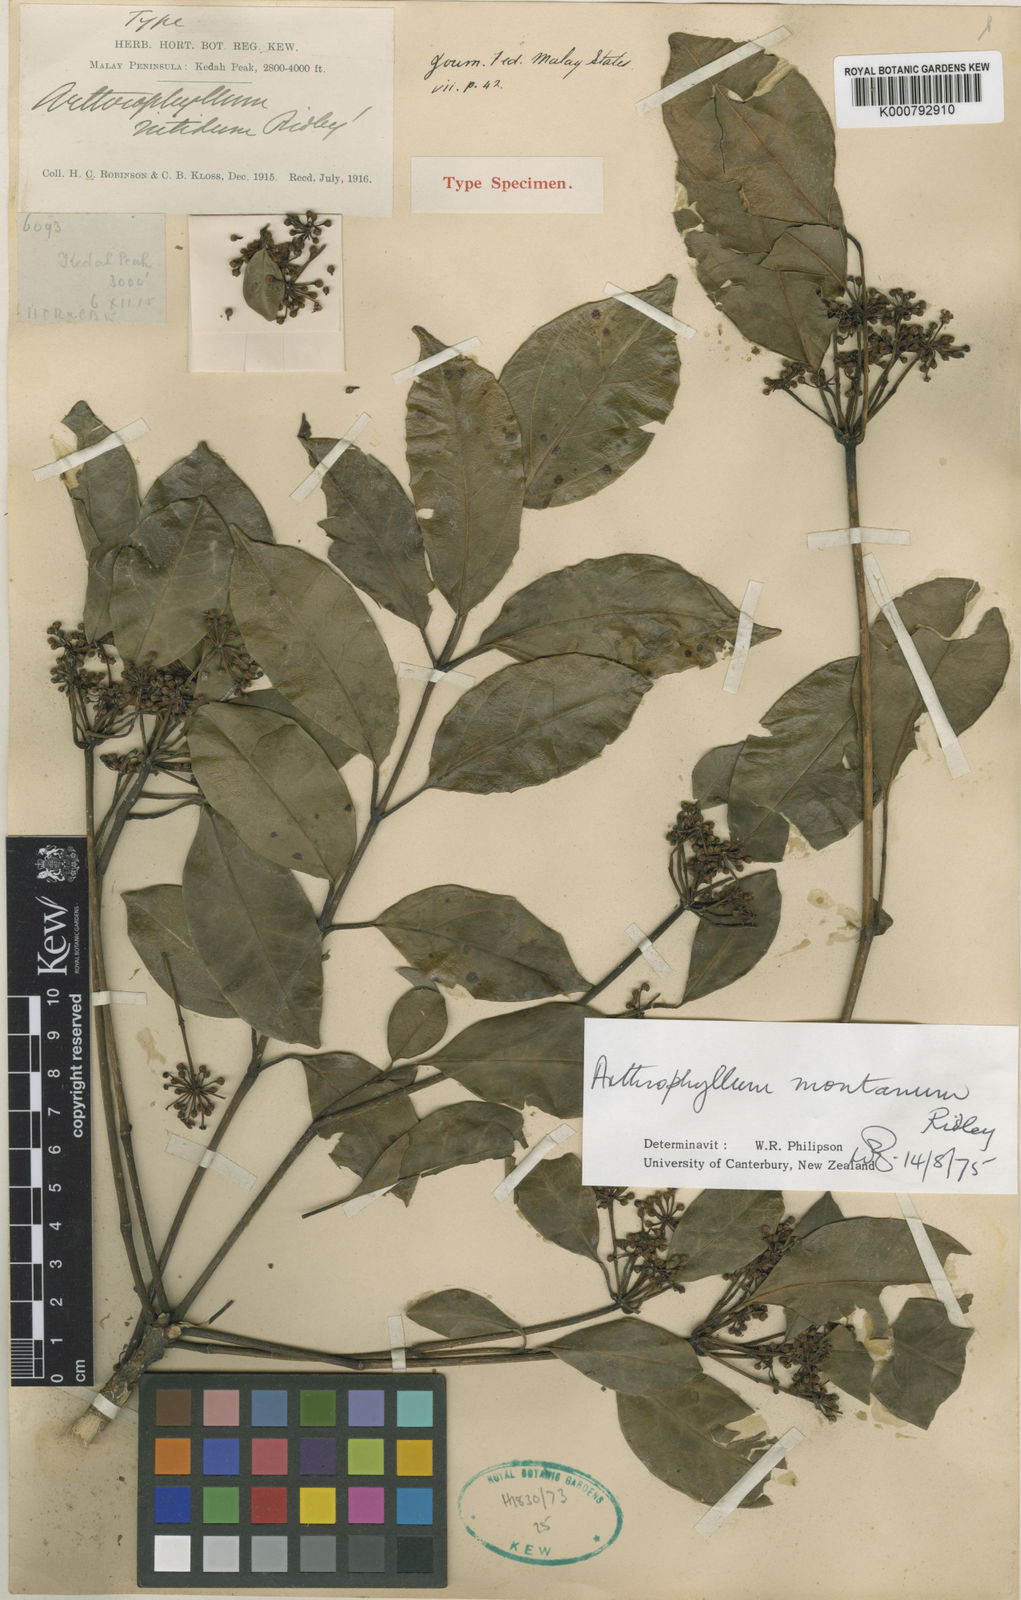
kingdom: Plantae
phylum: Tracheophyta
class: Magnoliopsida
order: Apiales
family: Araliaceae
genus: Polyscias
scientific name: Polyscias montana
